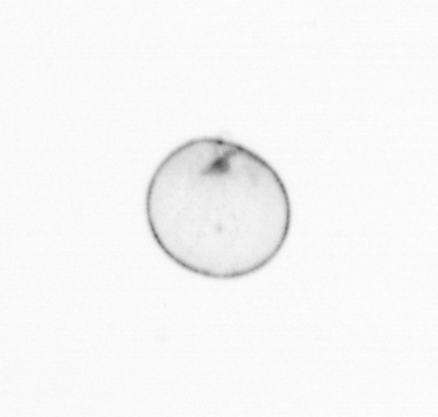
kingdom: Chromista
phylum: Myzozoa
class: Dinophyceae
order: Noctilucales
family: Noctilucaceae
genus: Noctiluca
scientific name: Noctiluca scintillans
